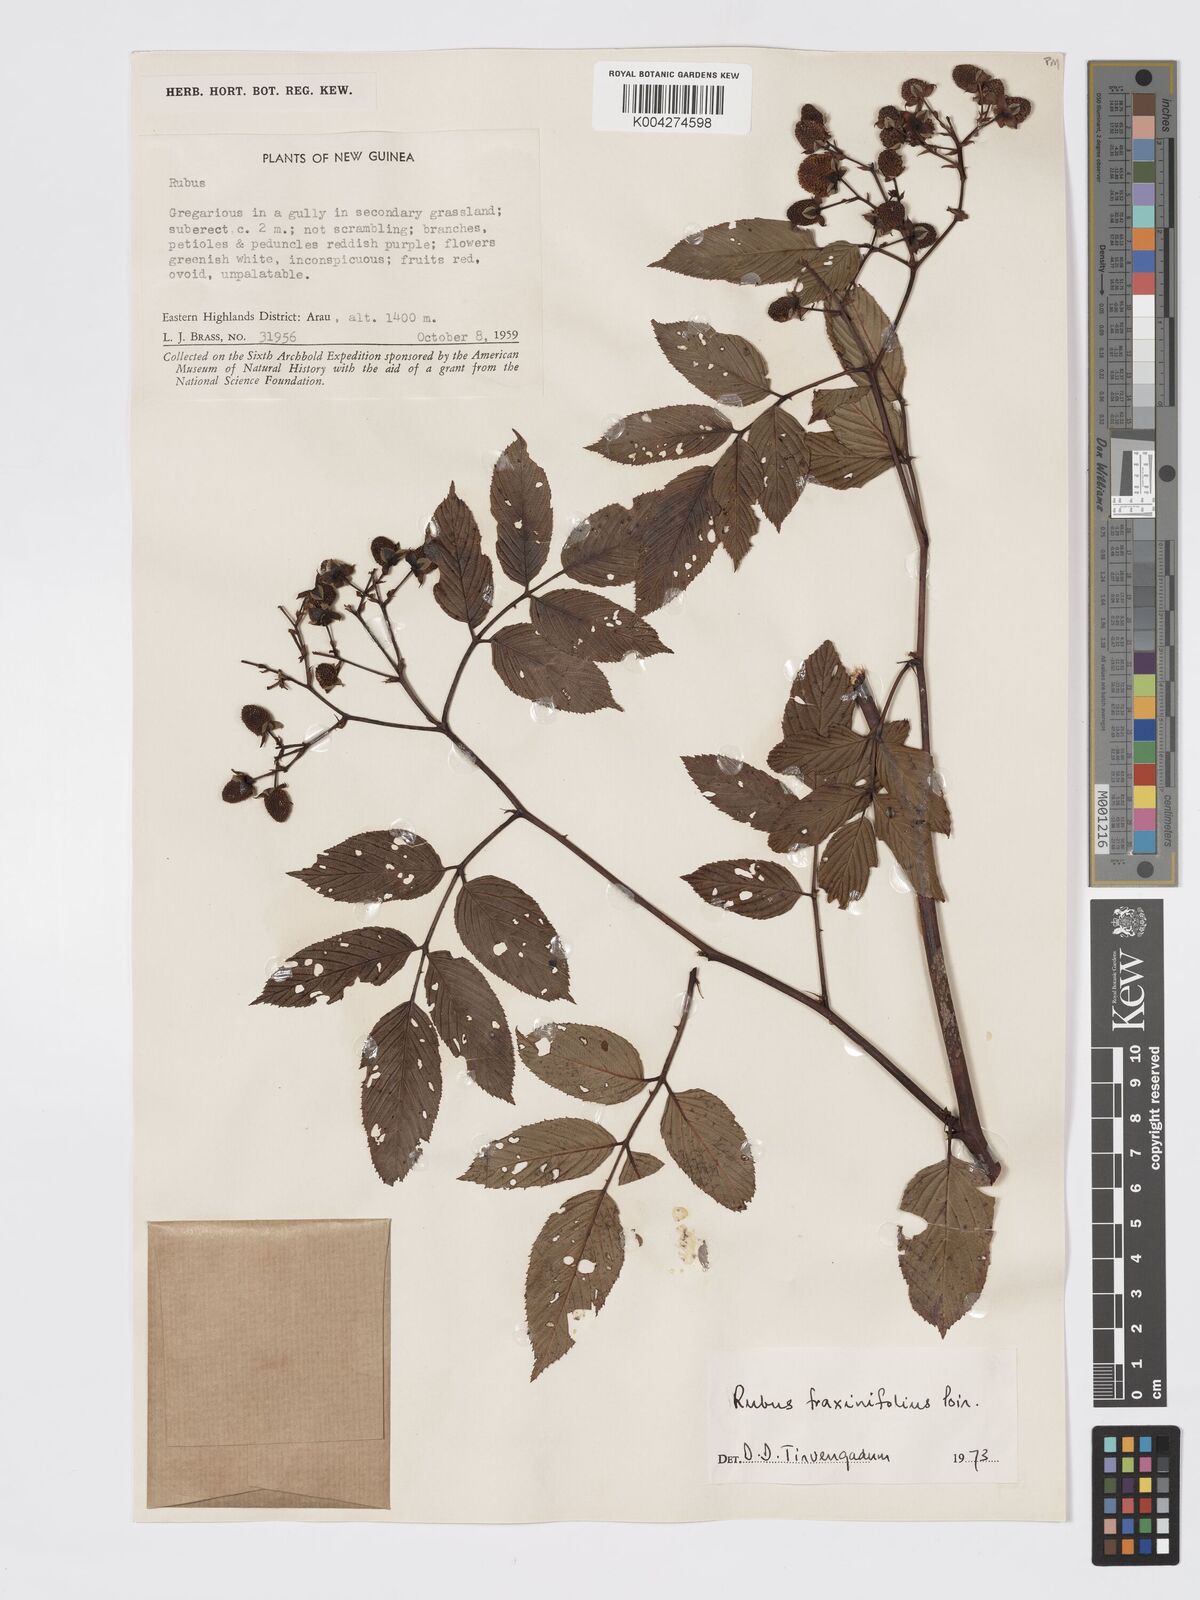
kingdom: Plantae
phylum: Tracheophyta
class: Magnoliopsida
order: Rosales
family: Rosaceae
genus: Rubus
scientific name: Rubus fraxinifolius
